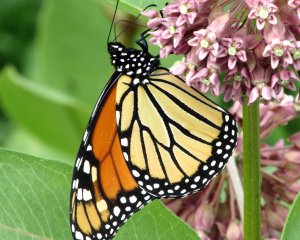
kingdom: Animalia
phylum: Arthropoda
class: Insecta
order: Lepidoptera
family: Nymphalidae
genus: Danaus
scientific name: Danaus plexippus
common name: Monarch
